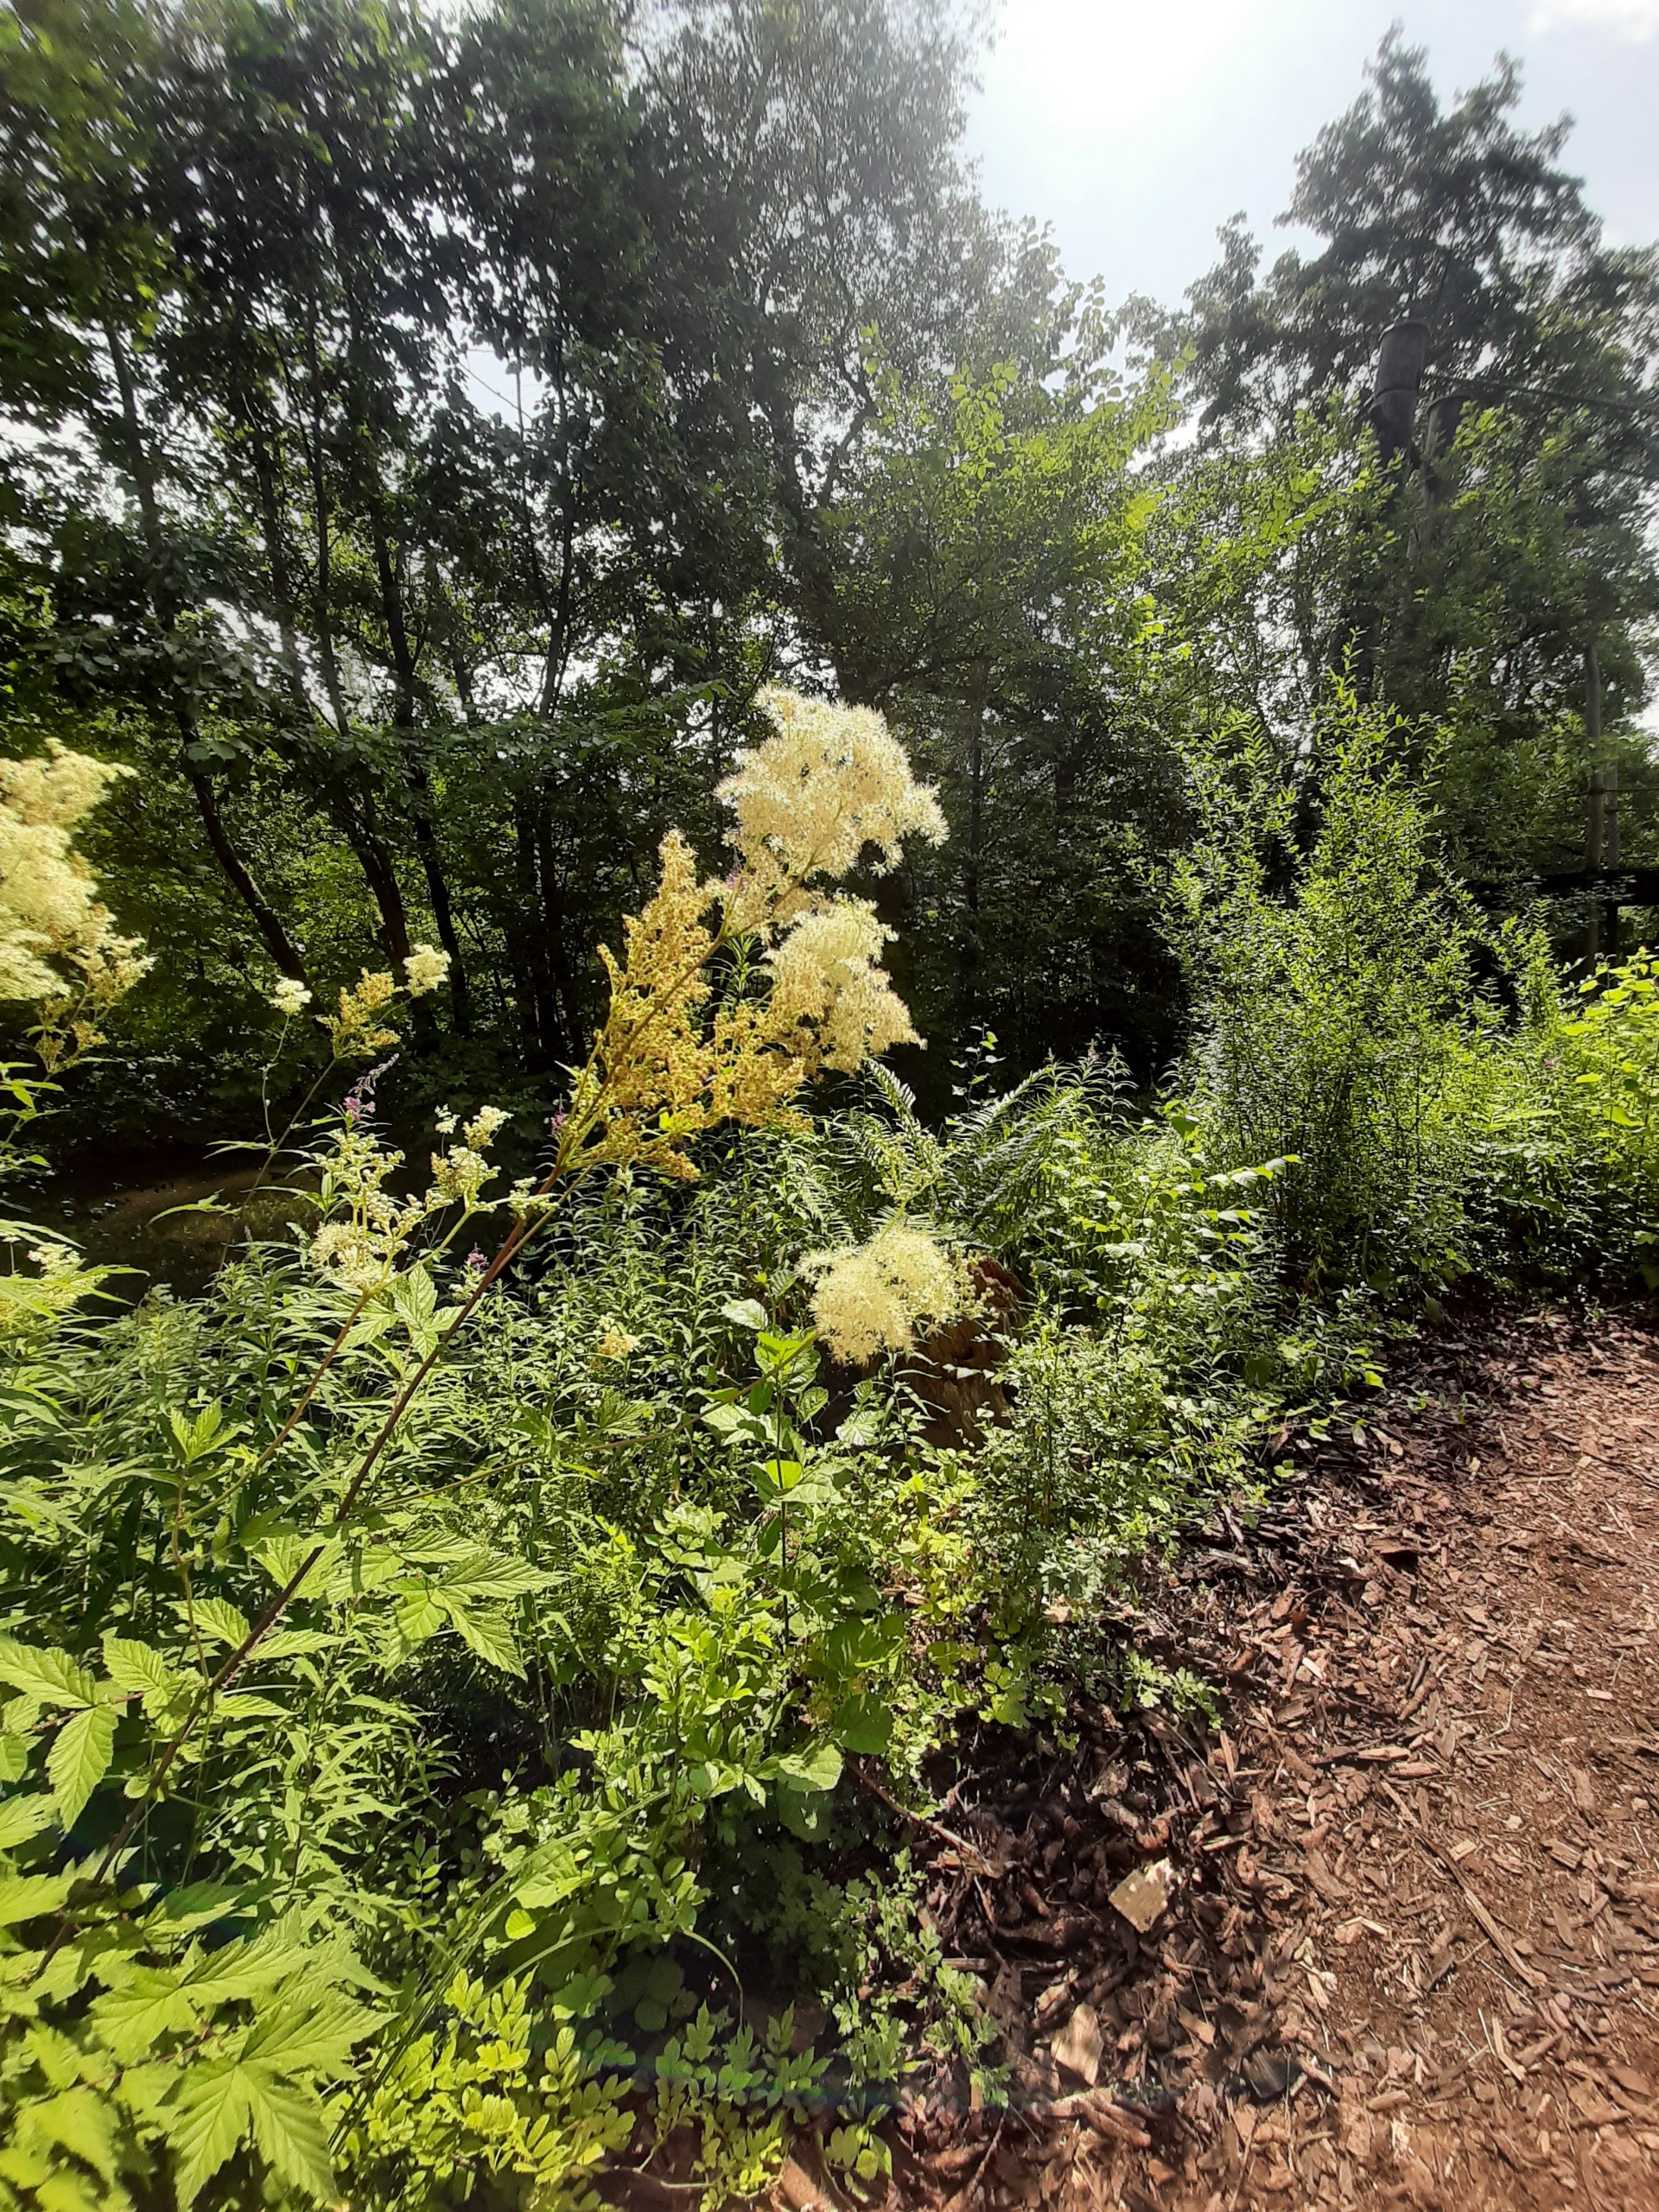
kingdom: Plantae
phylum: Tracheophyta
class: Magnoliopsida
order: Rosales
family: Rosaceae
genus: Filipendula
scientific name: Filipendula ulmaria
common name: Almindelig mjødurt
